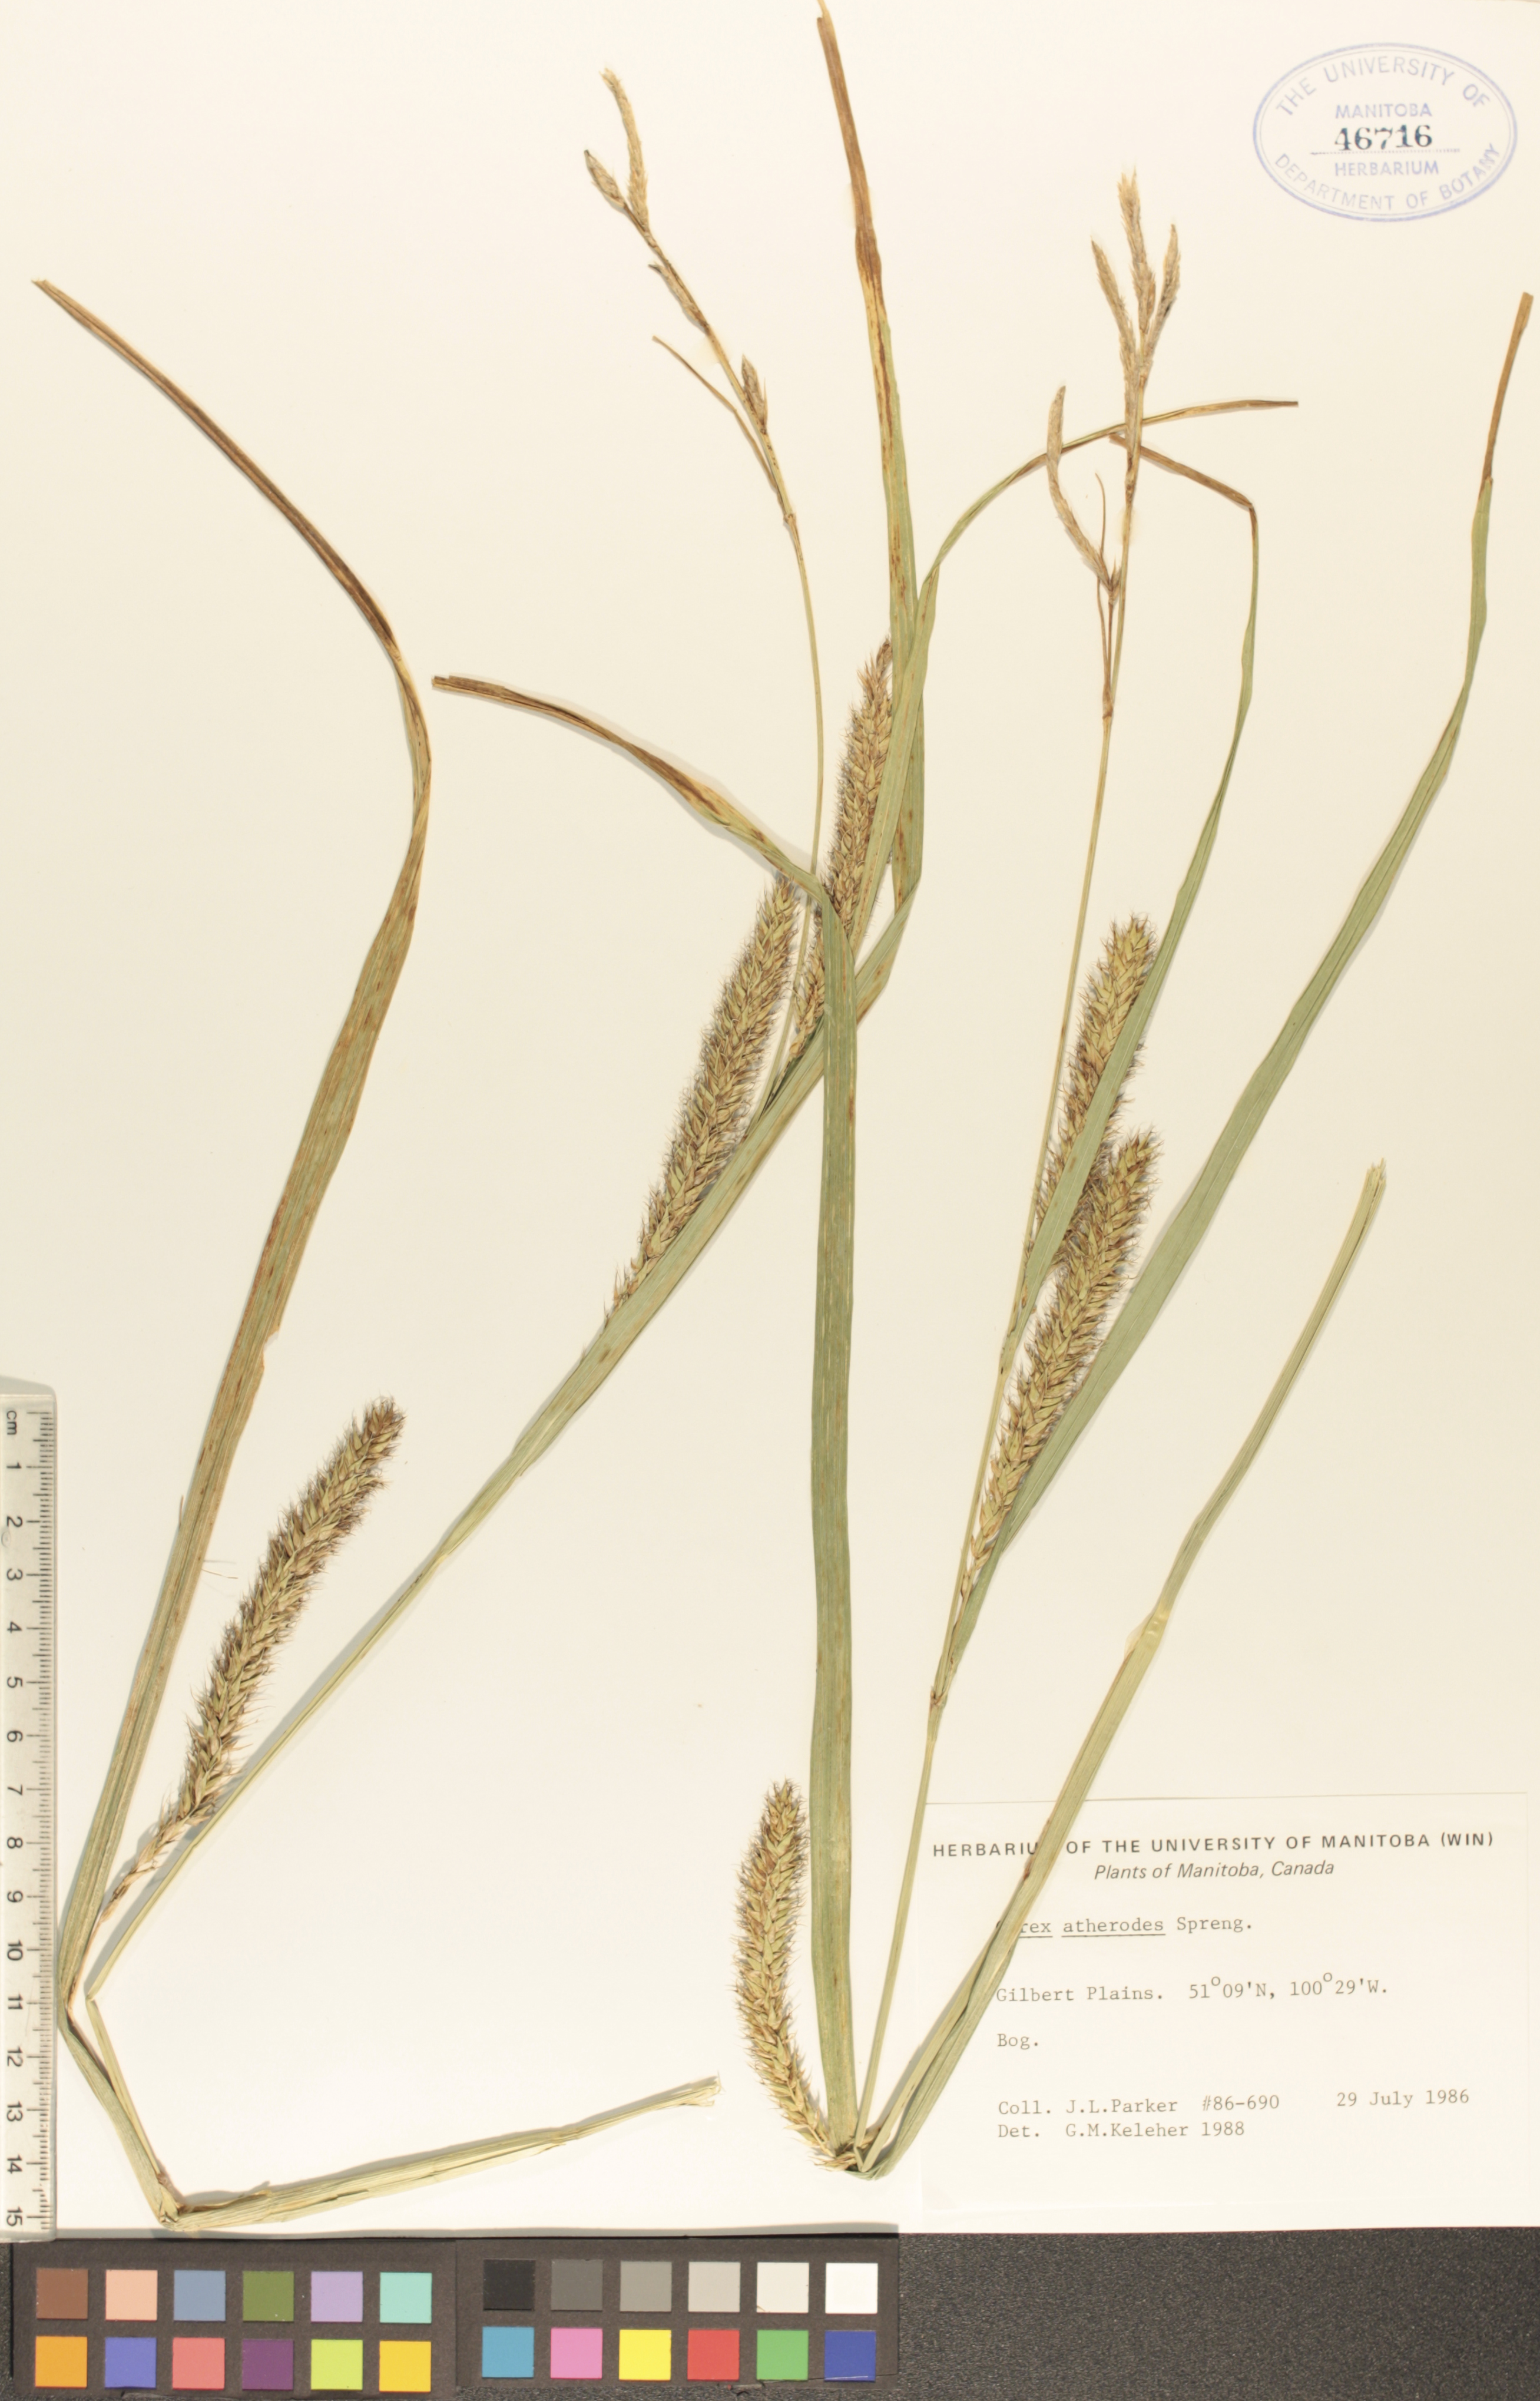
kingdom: Plantae
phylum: Tracheophyta
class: Liliopsida
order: Poales
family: Cyperaceae
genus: Carex
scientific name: Carex atherodes
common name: Wheat sedge
